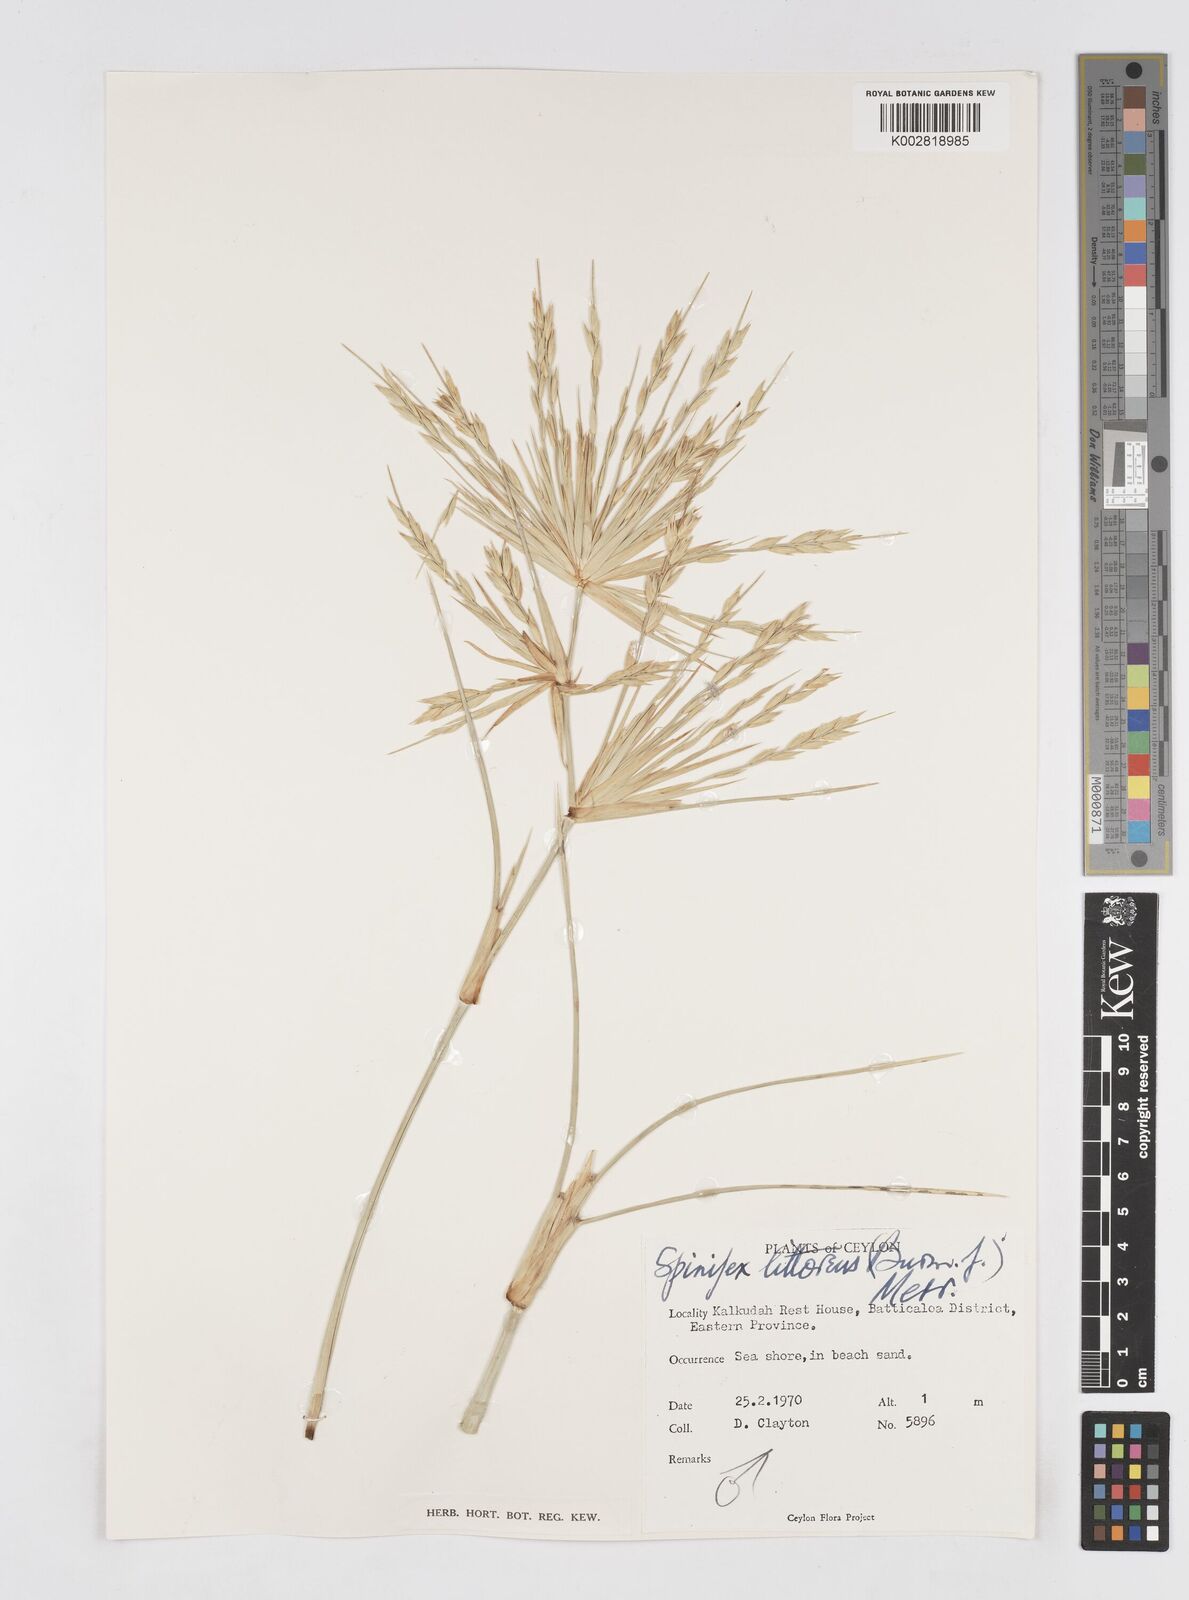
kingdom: Plantae
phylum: Tracheophyta
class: Liliopsida
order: Poales
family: Poaceae
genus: Spinifex
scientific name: Spinifex littoreus
